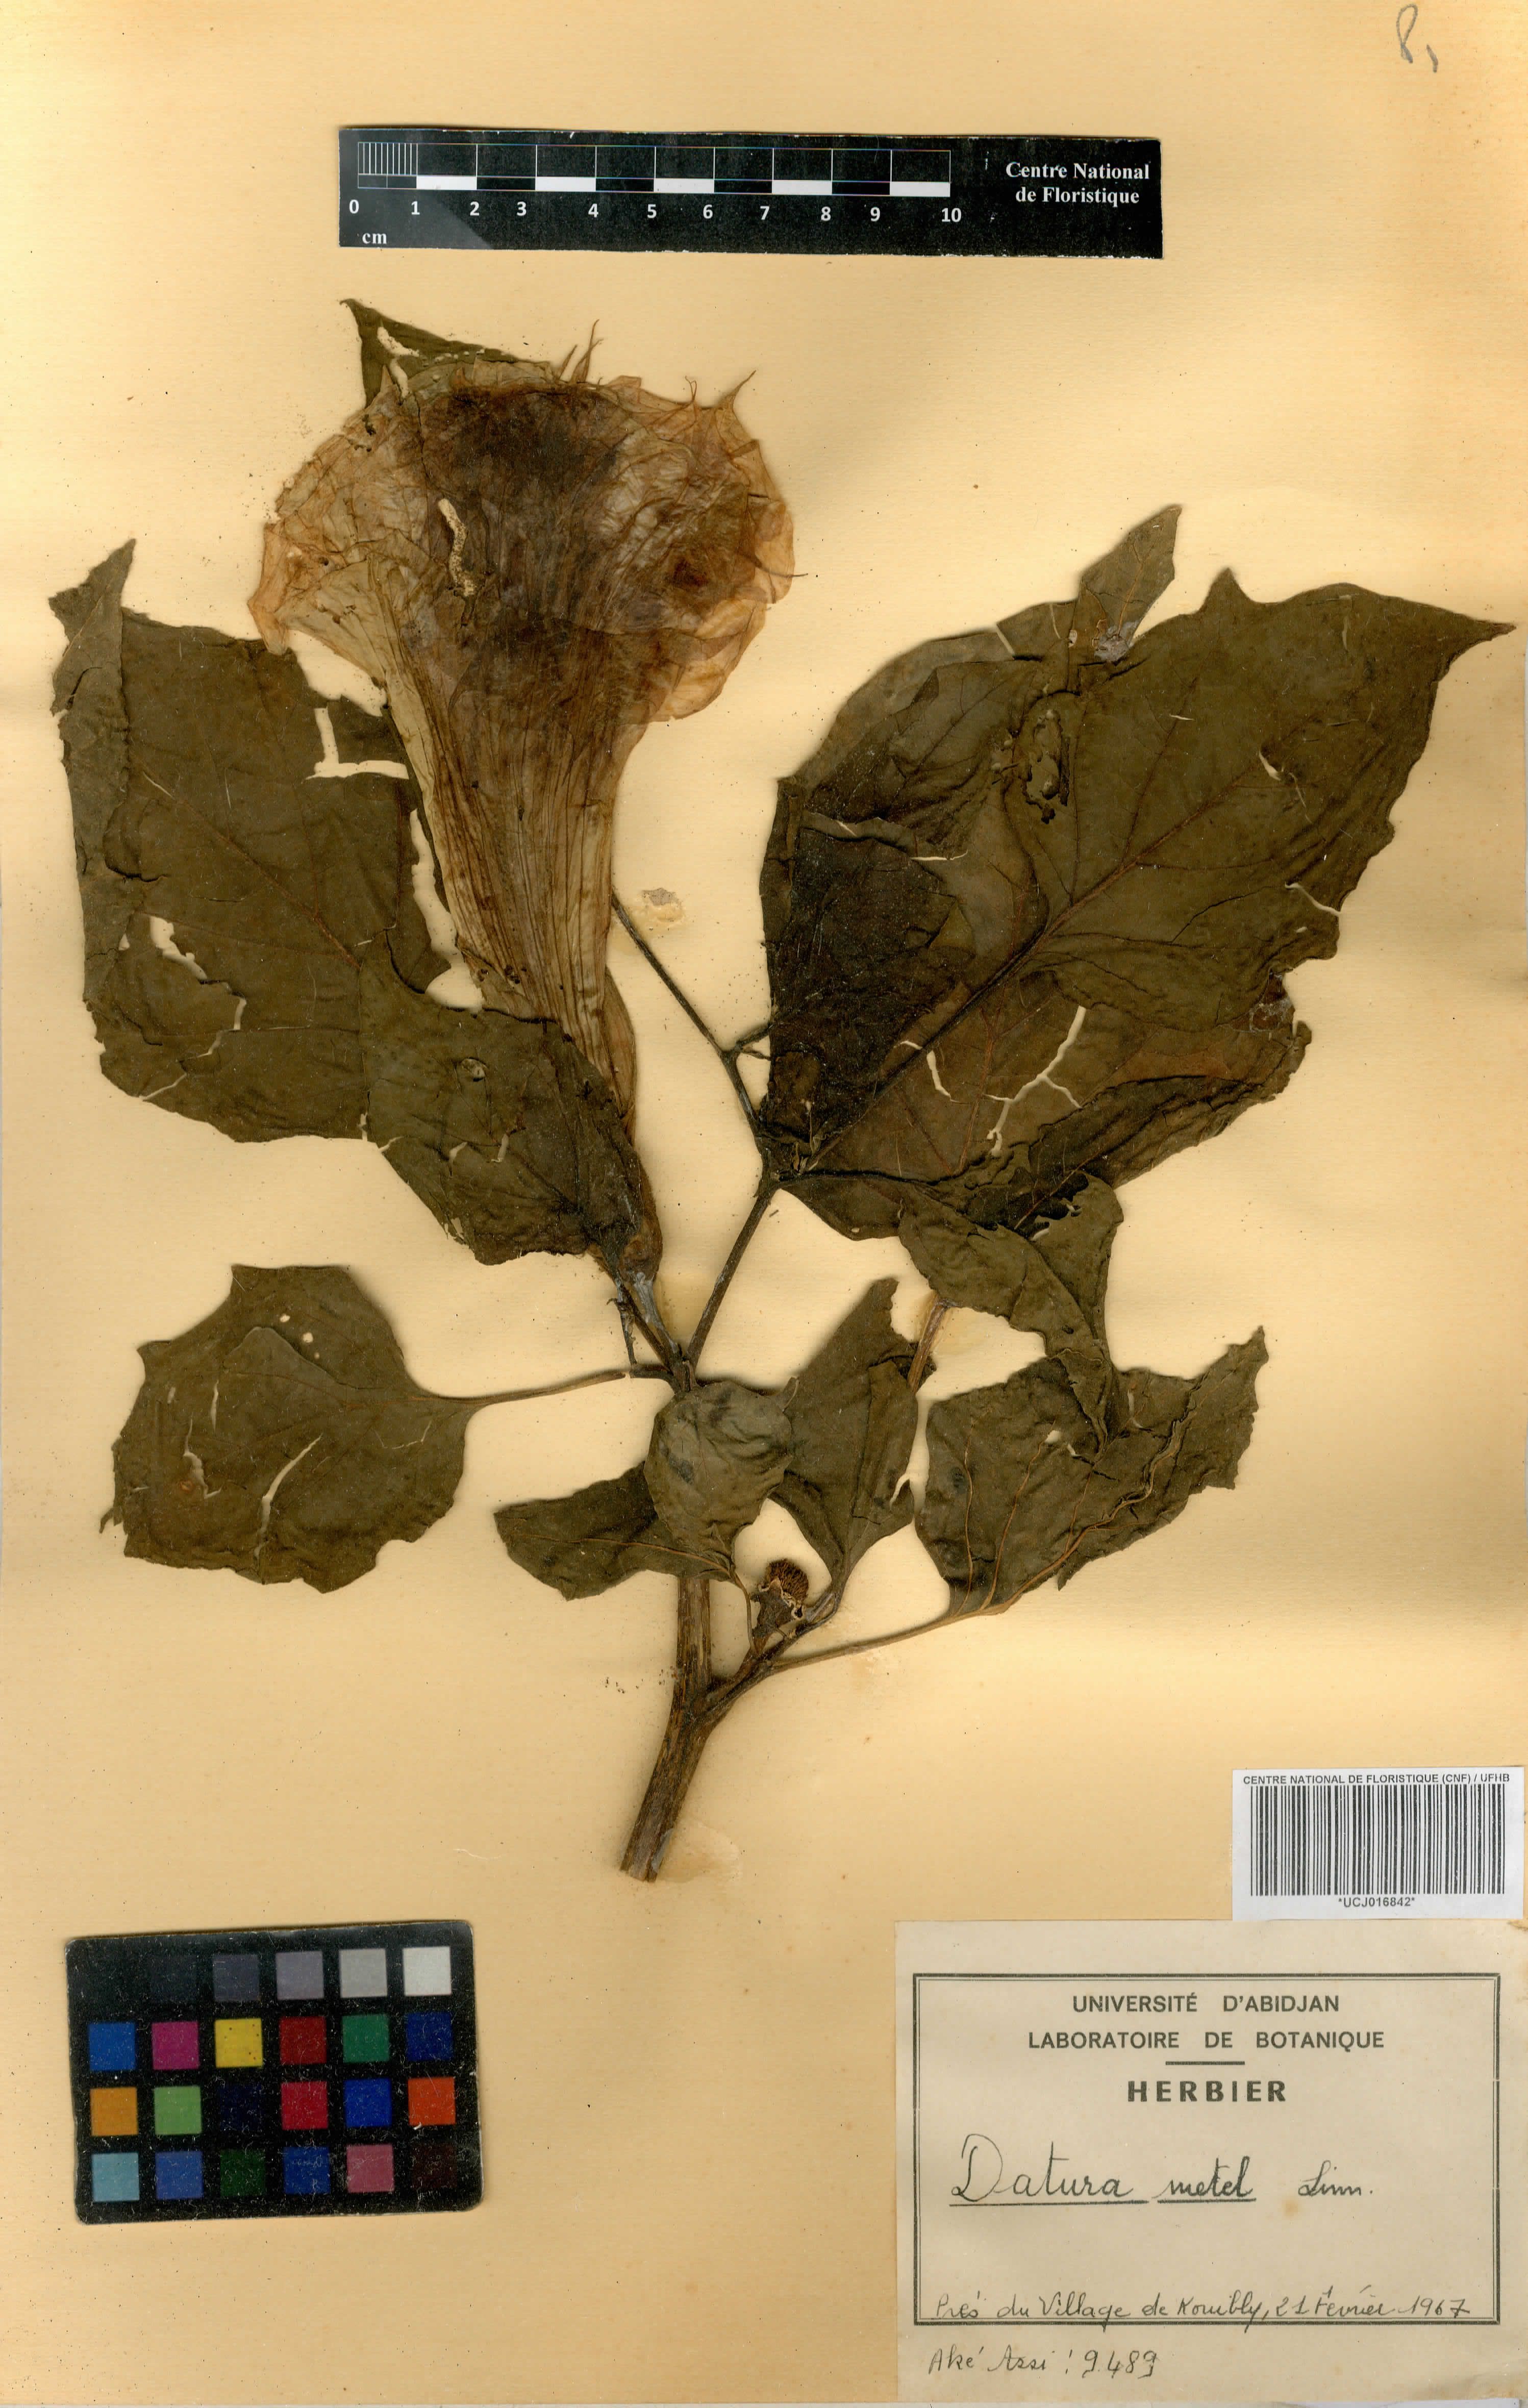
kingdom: Plantae
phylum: Tracheophyta
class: Magnoliopsida
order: Solanales
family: Solanaceae
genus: Datura
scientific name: Datura metel
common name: Jimsonweed
